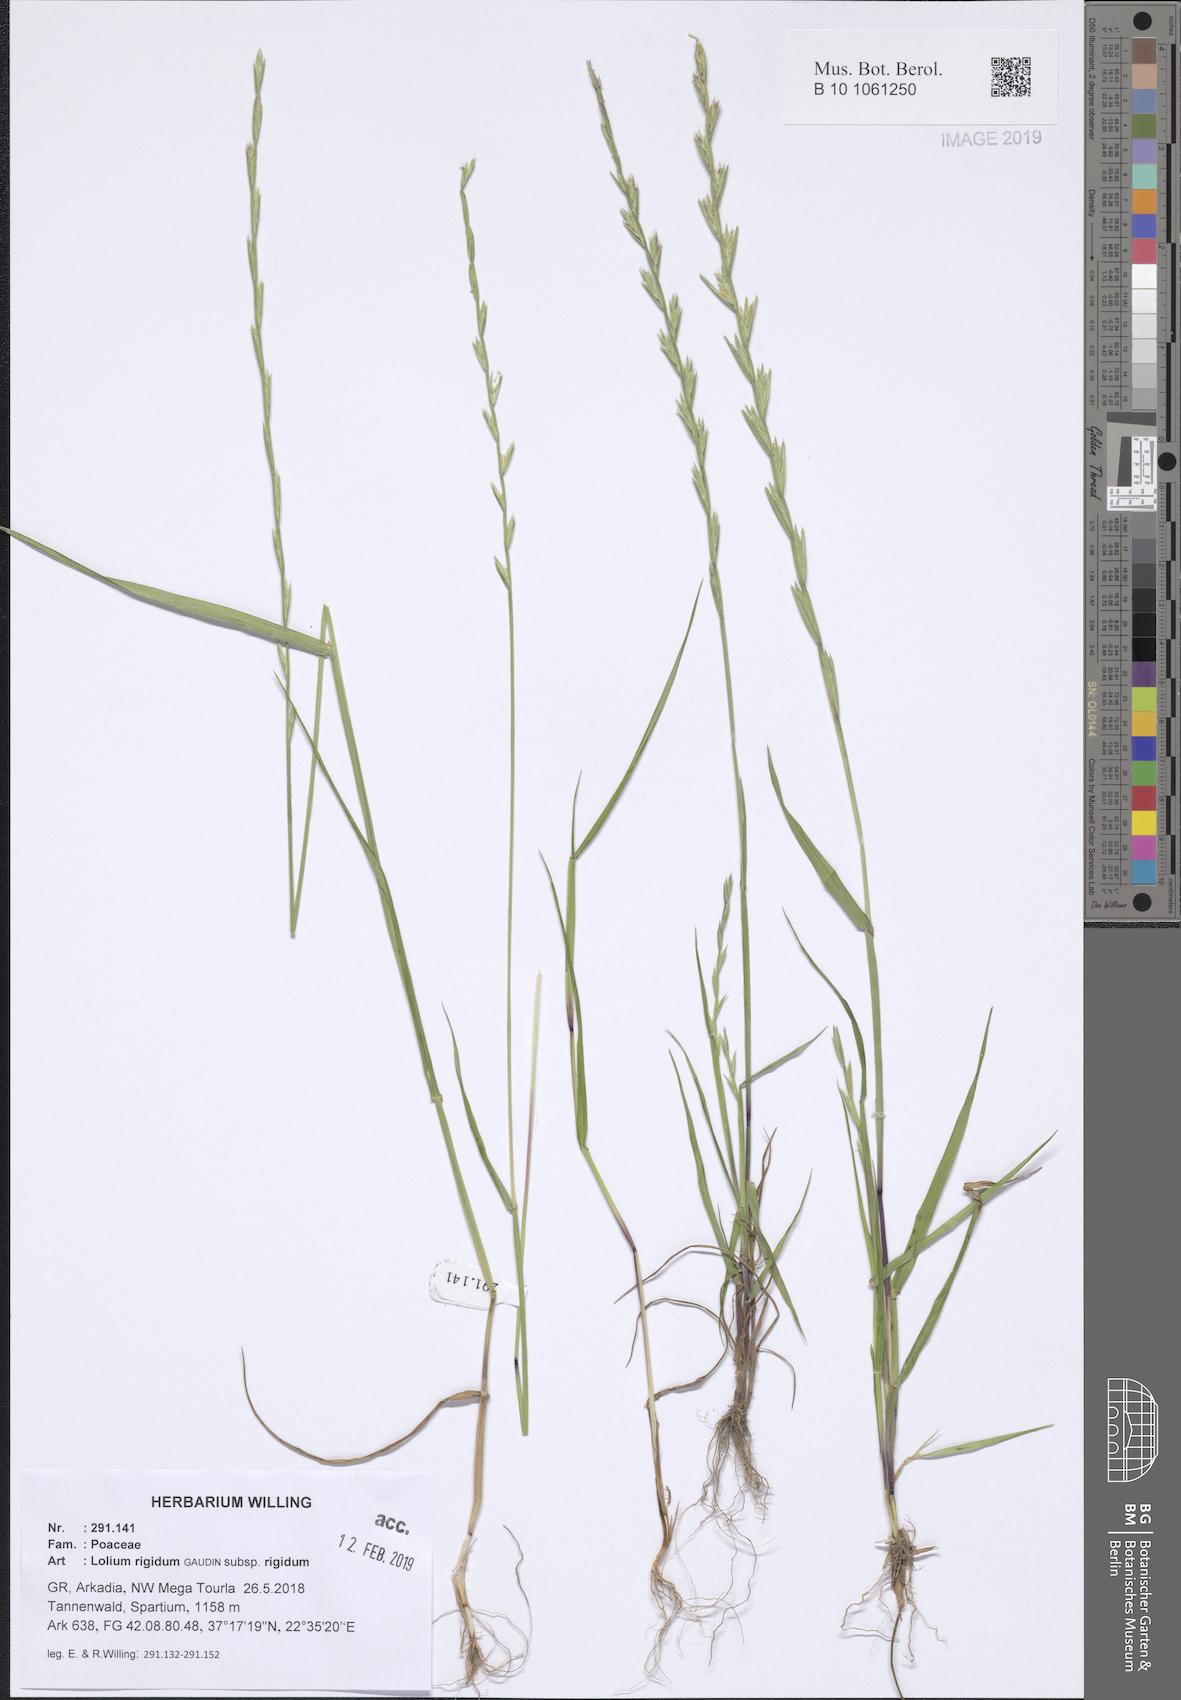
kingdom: Plantae
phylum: Tracheophyta
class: Liliopsida
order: Poales
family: Poaceae
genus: Lolium
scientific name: Lolium rigidum
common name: Wimmera ryegrass
